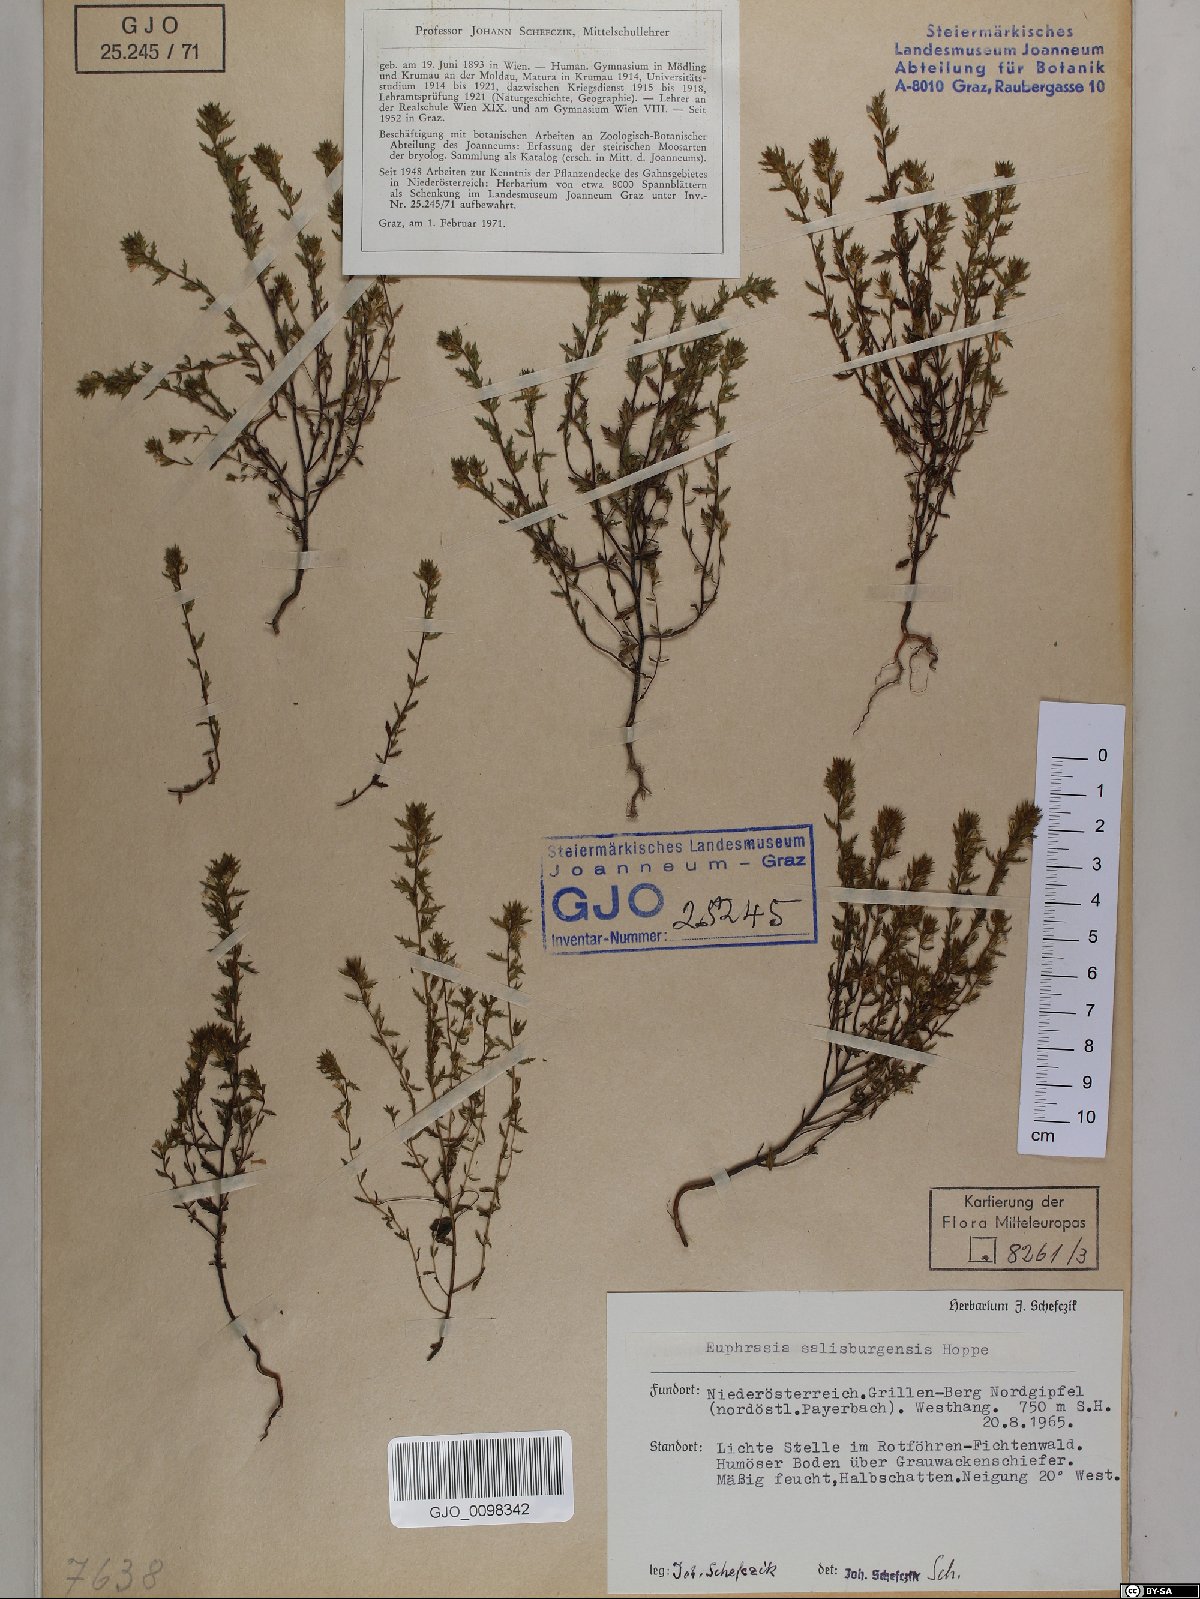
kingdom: Plantae
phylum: Tracheophyta
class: Magnoliopsida
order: Lamiales
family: Orobanchaceae
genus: Euphrasia
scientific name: Euphrasia salisburgensis
